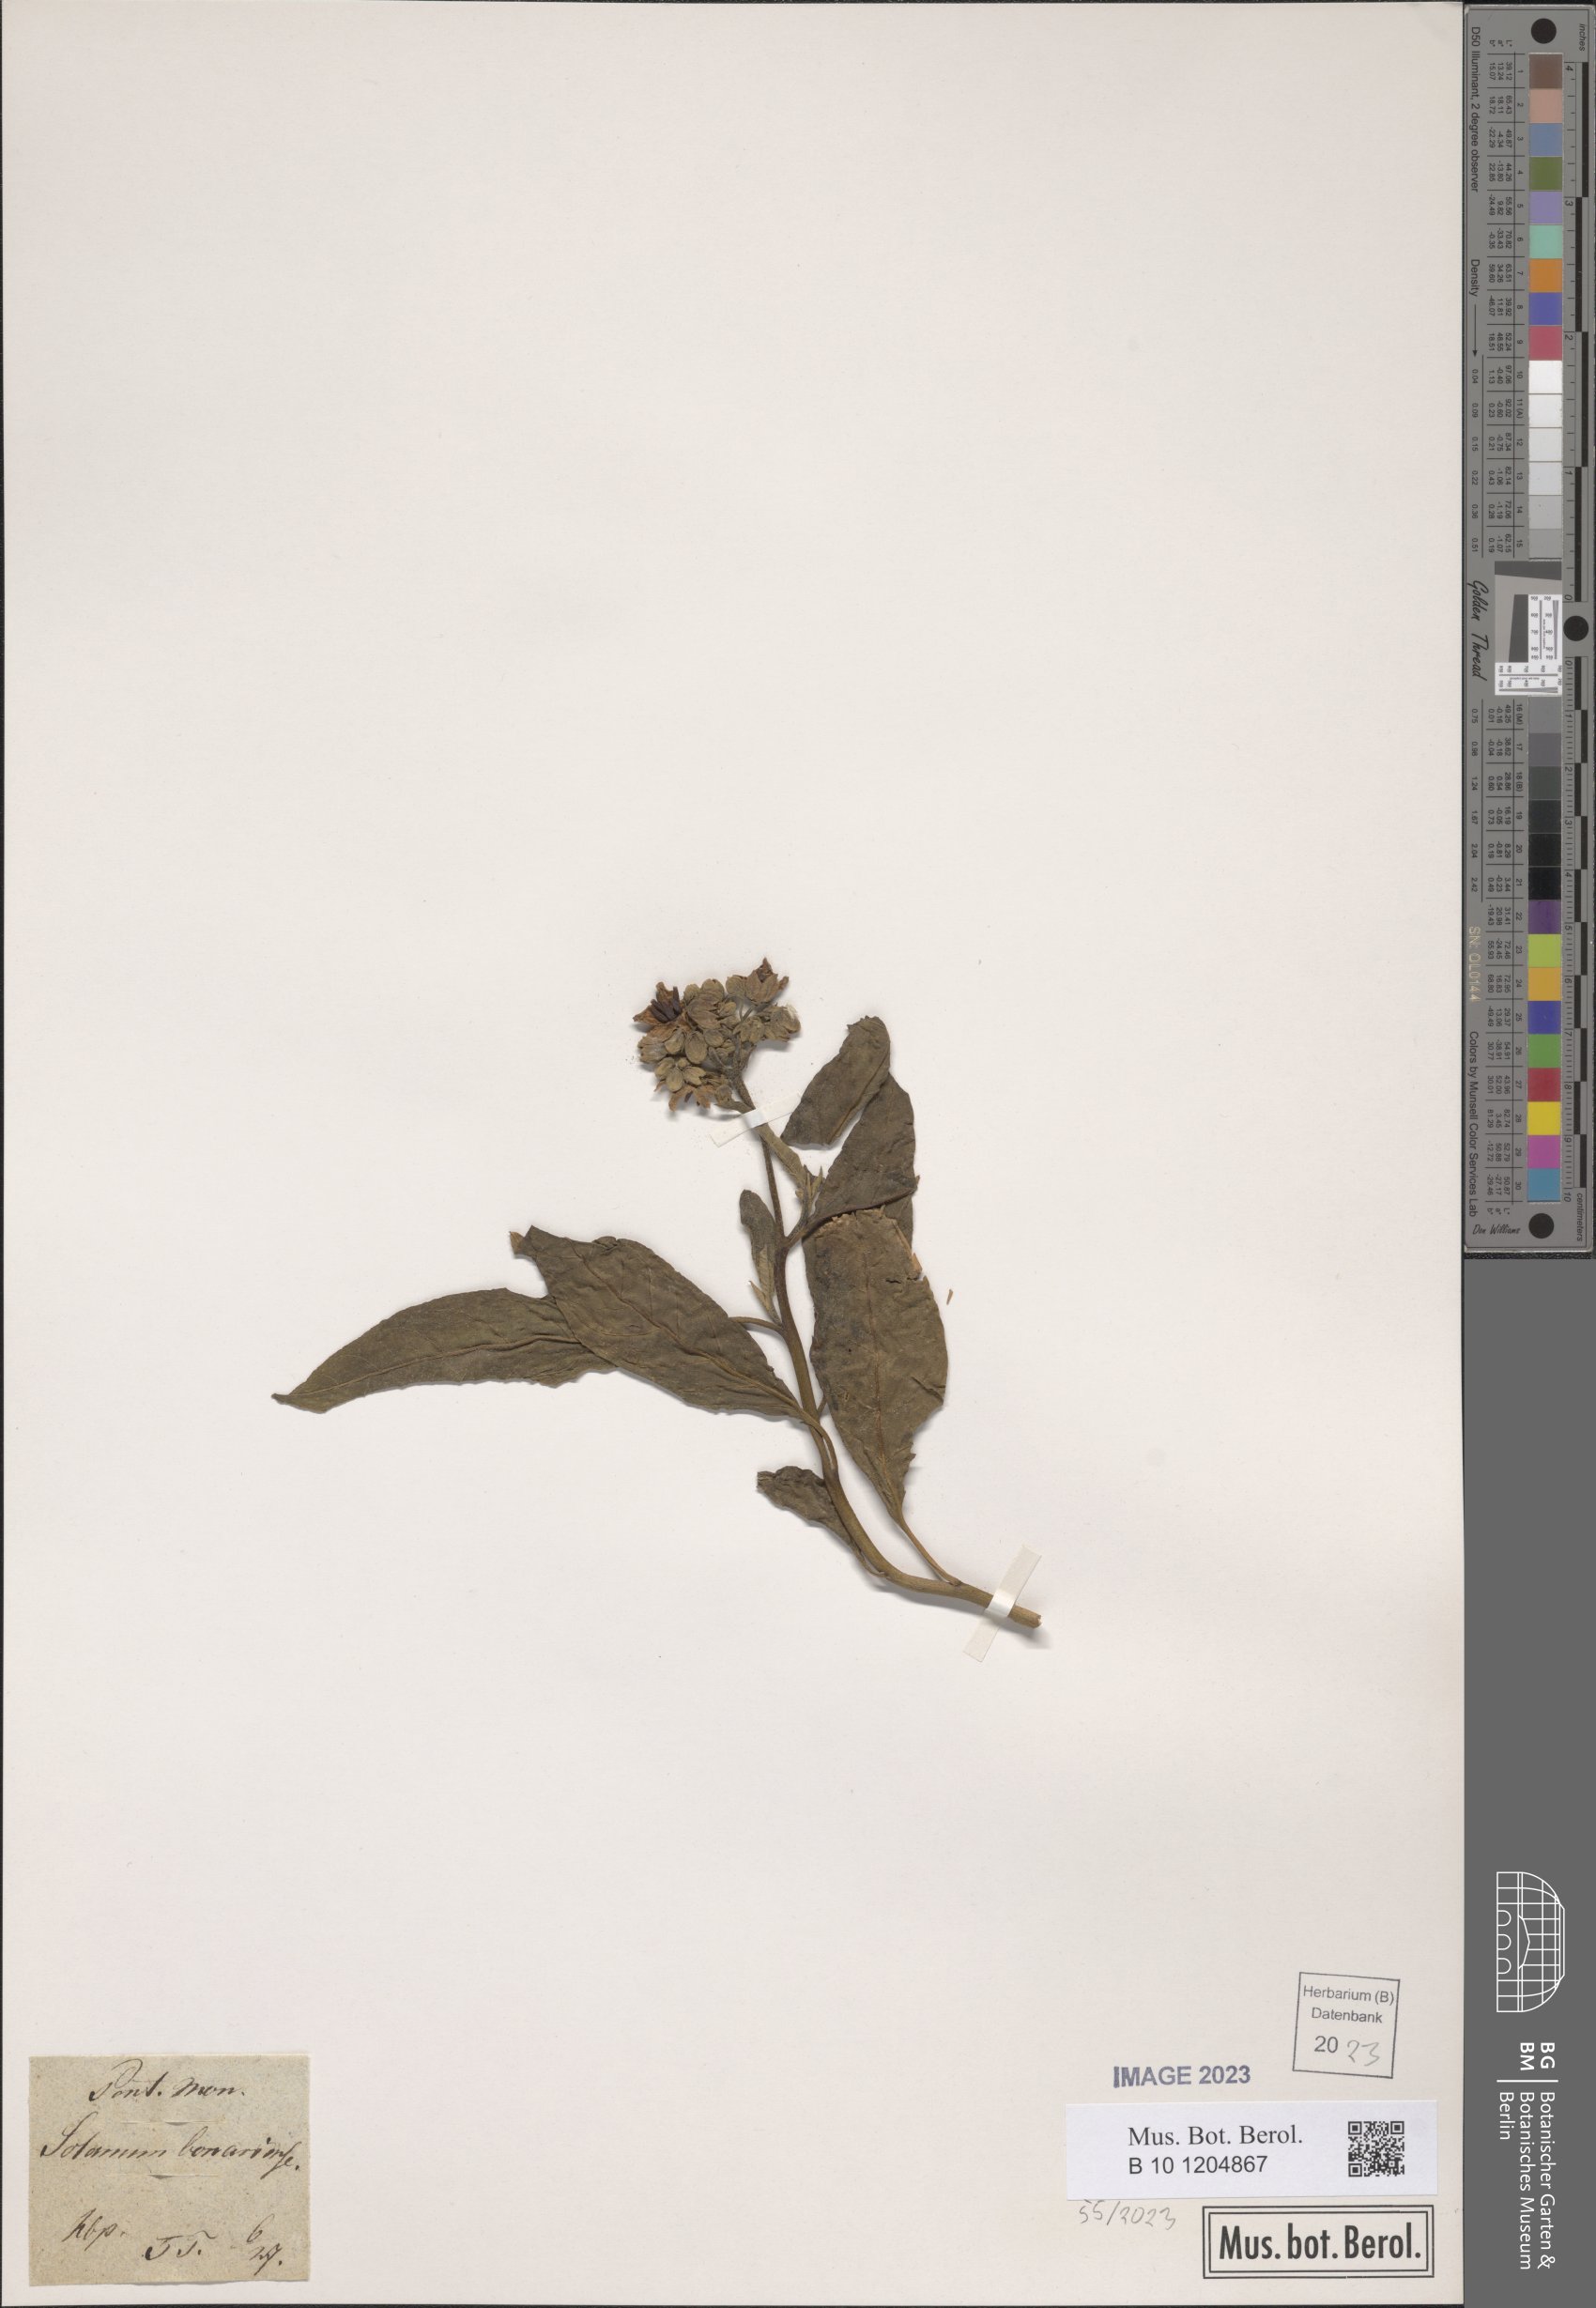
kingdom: Plantae
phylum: Tracheophyta
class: Magnoliopsida
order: Solanales
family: Solanaceae
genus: Solanum
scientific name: Solanum bonariense
